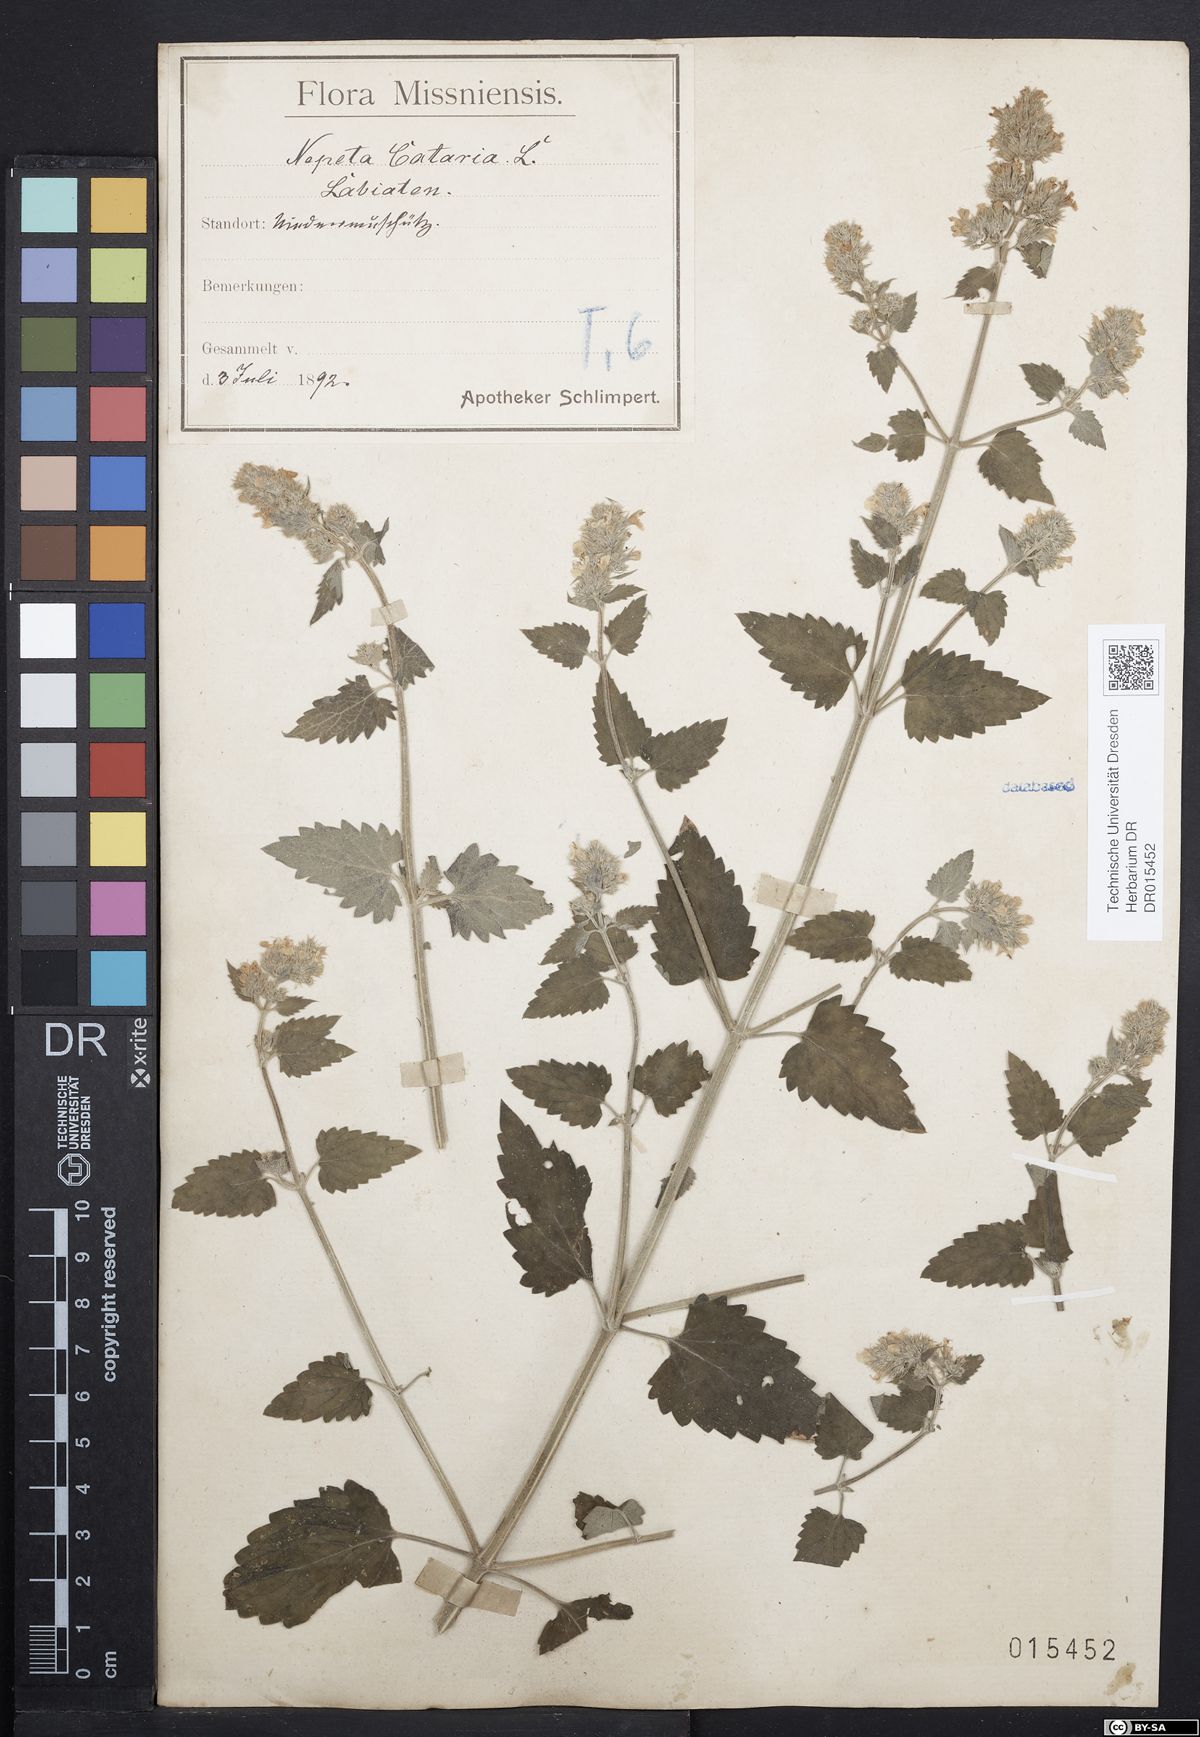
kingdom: Plantae
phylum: Tracheophyta
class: Magnoliopsida
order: Lamiales
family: Lamiaceae
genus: Nepeta
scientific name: Nepeta cataria
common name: Catnip
